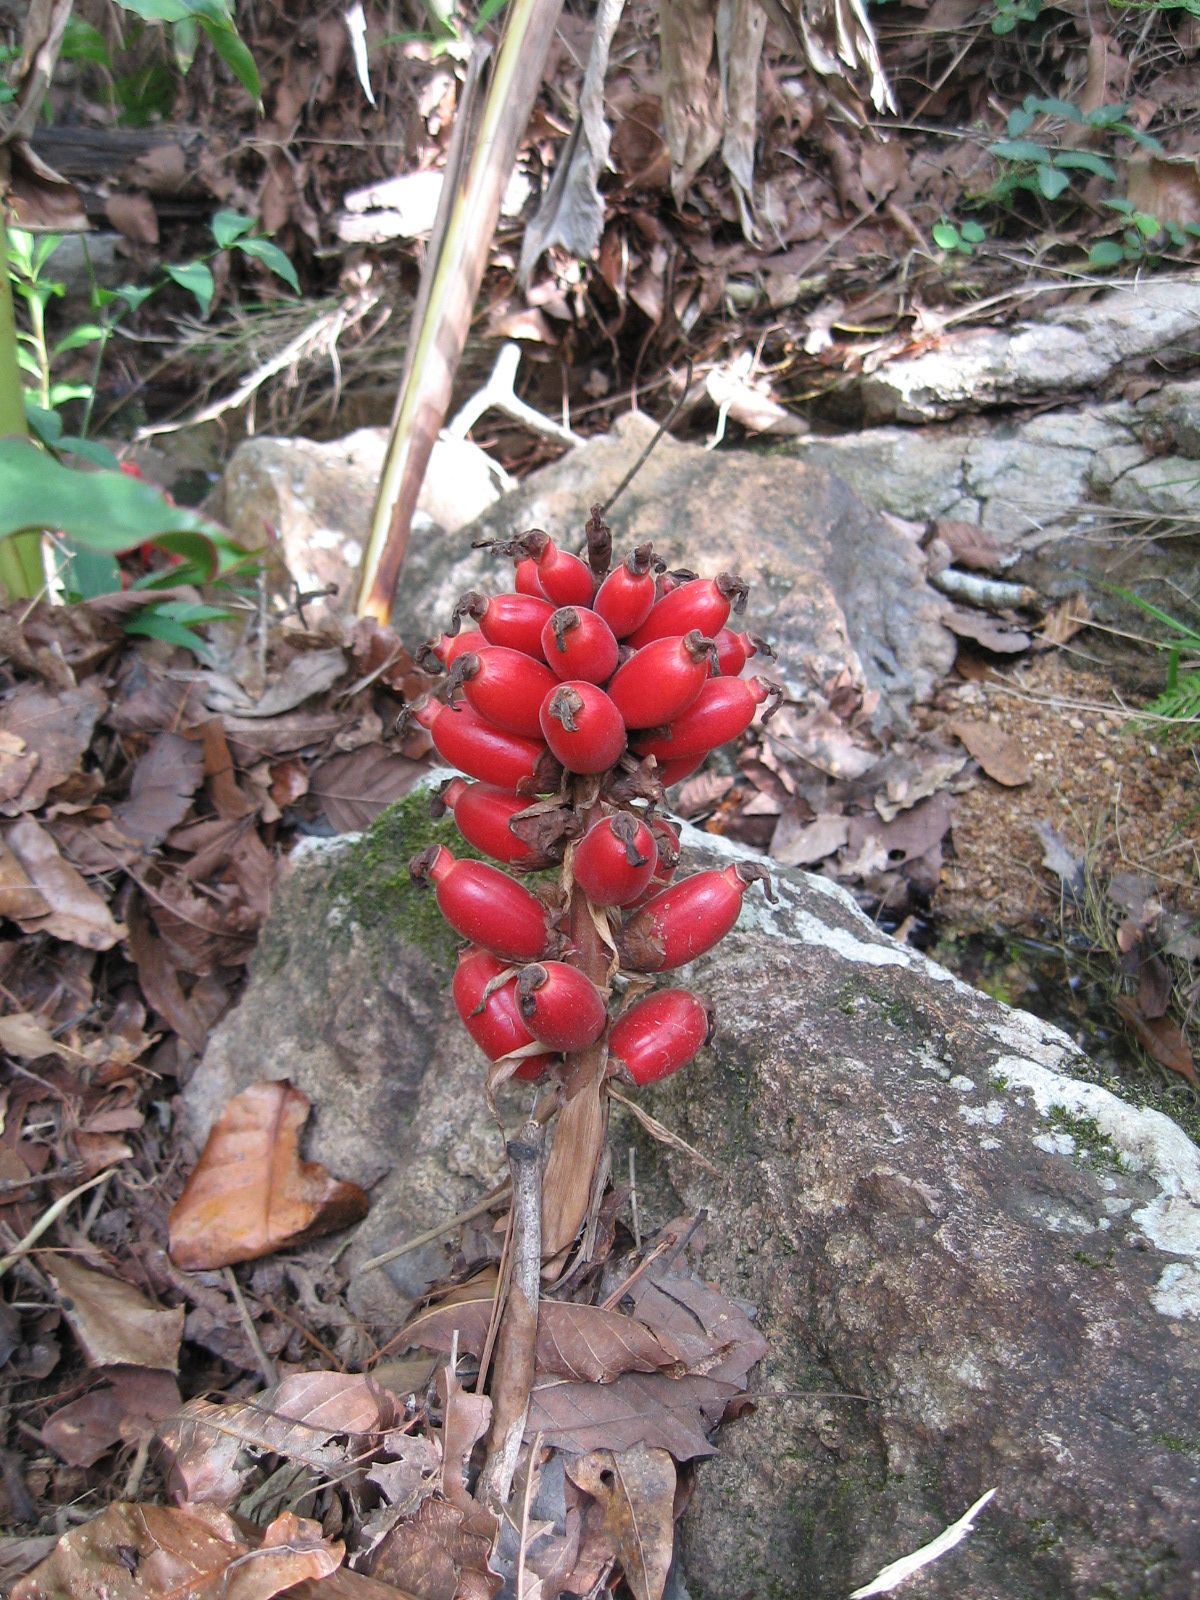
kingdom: Plantae
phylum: Tracheophyta
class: Liliopsida
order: Zingiberales
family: Zingiberaceae
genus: Renealmia
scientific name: Renealmia alpinia
